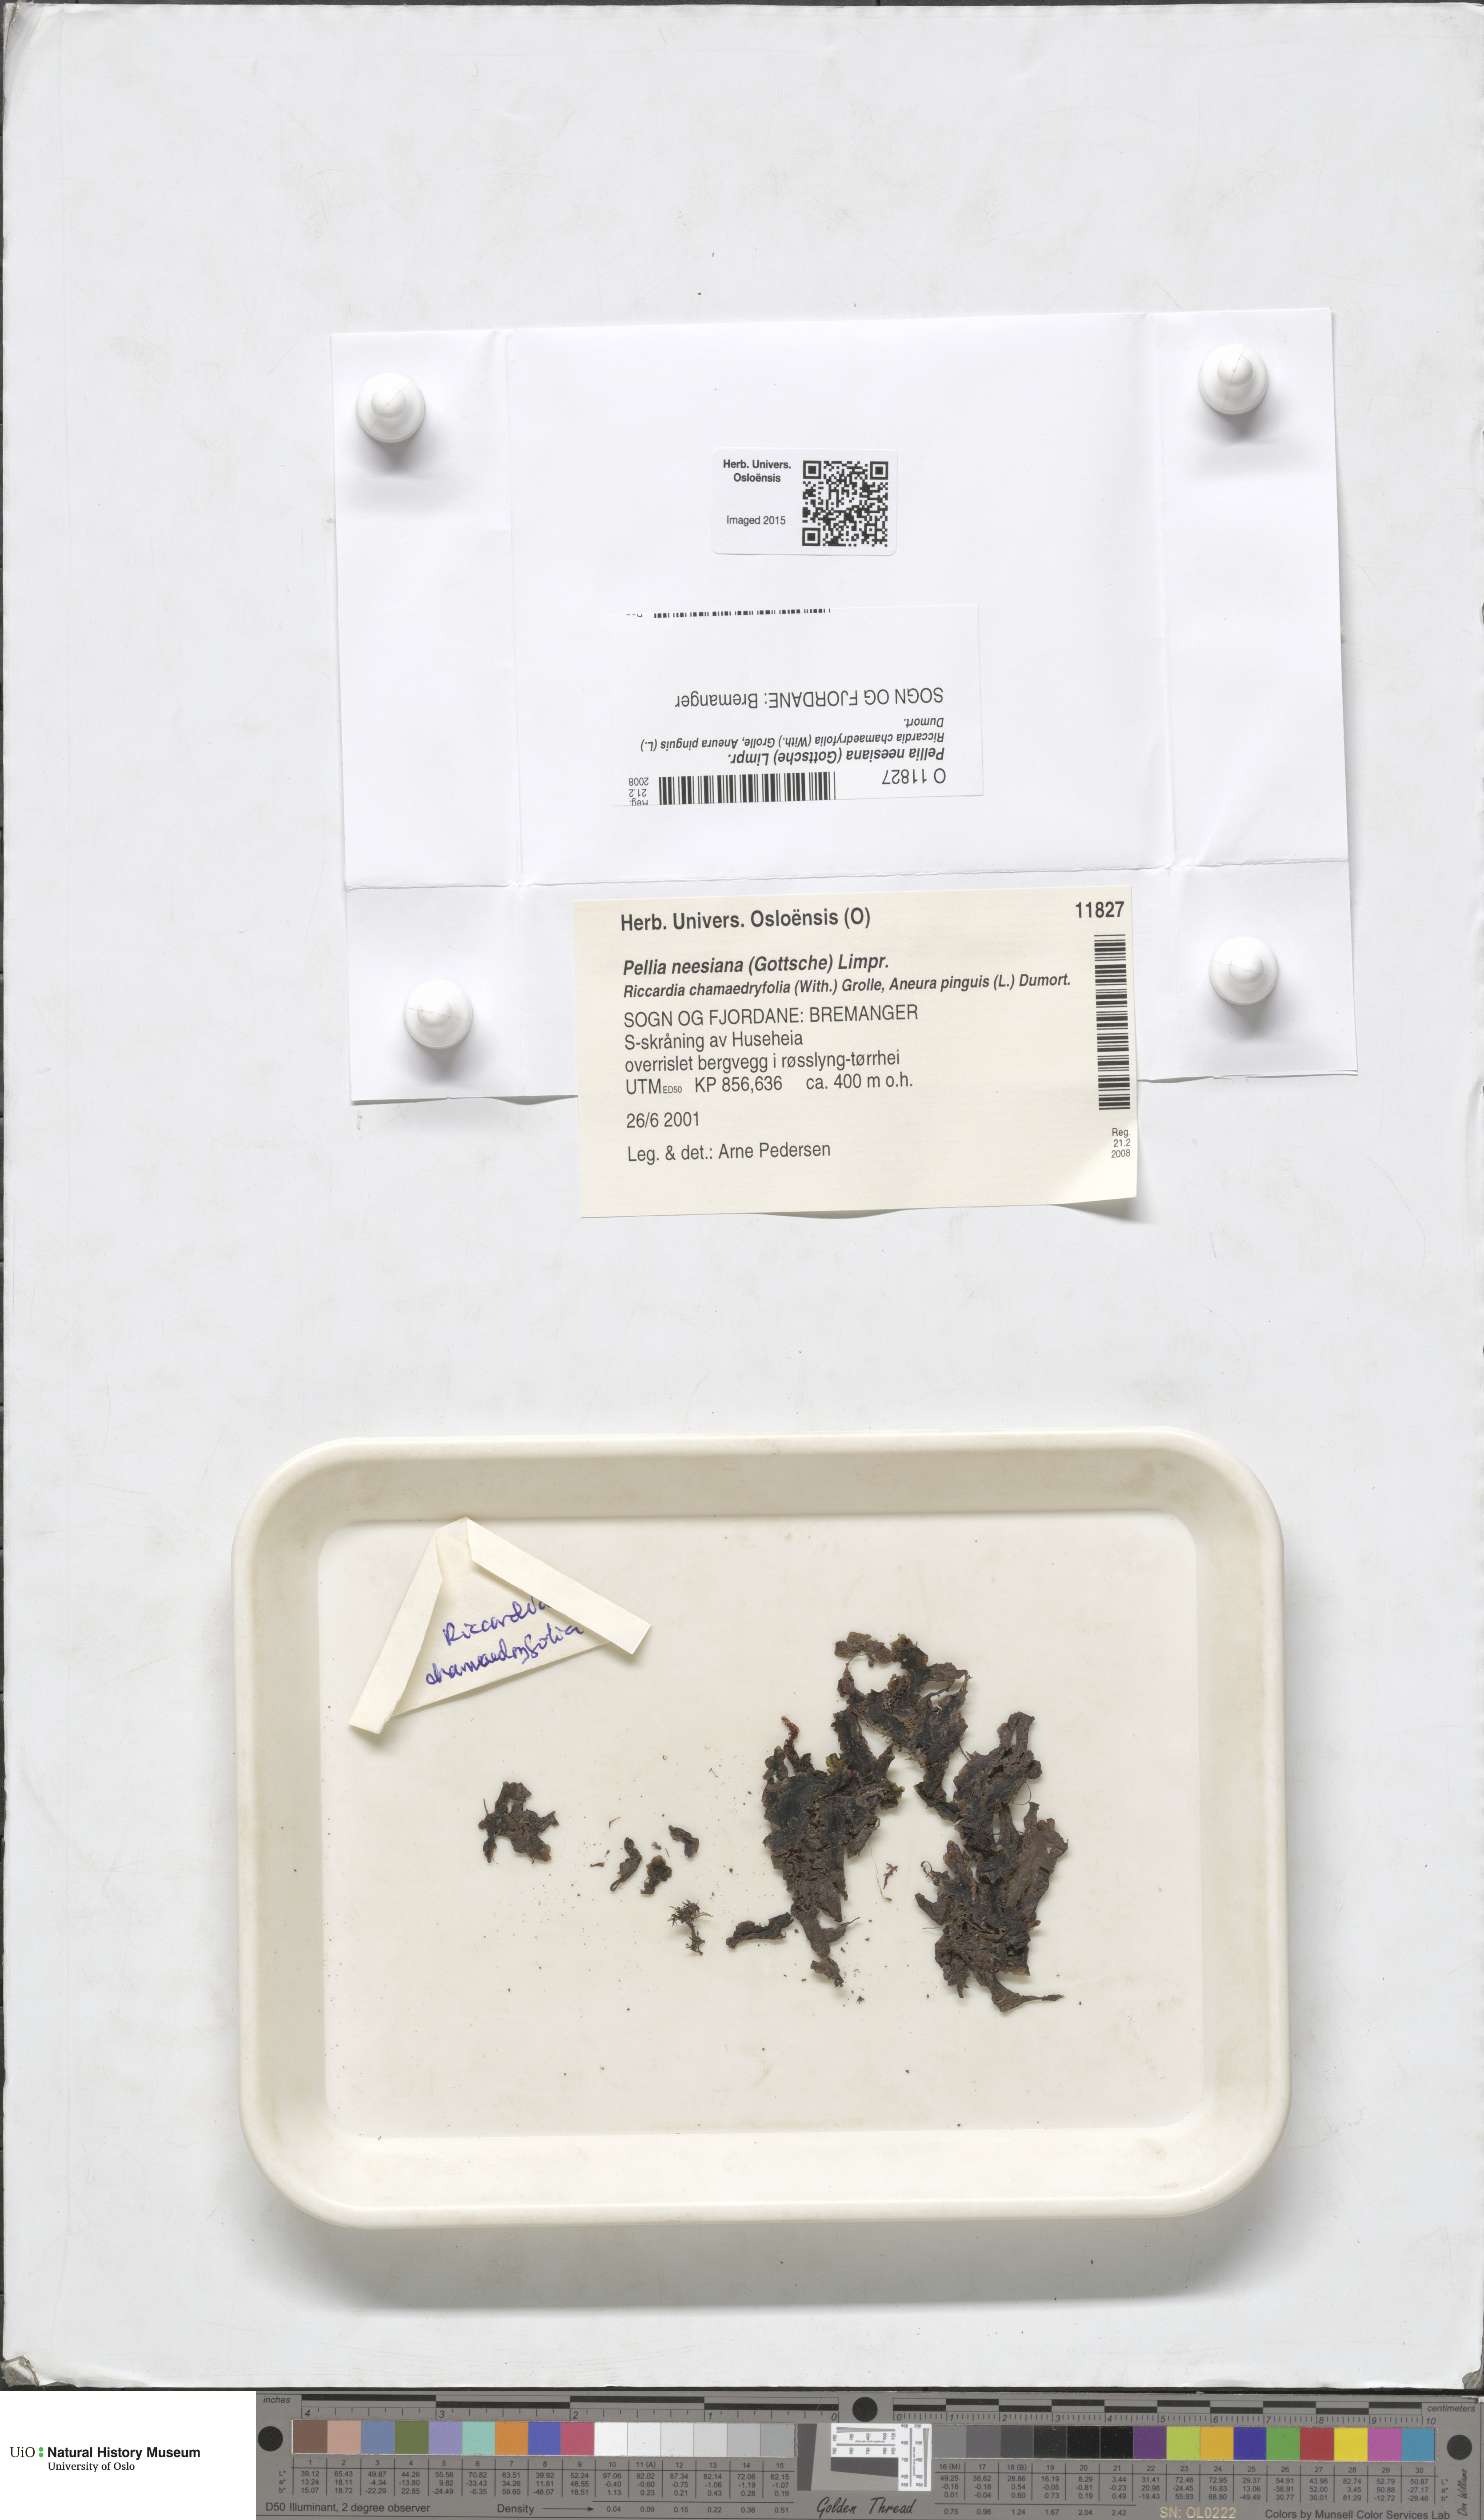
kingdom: Plantae
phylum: Marchantiophyta
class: Jungermanniopsida
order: Pelliales
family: Pelliaceae
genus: Pellia
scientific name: Pellia neesiana
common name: Nees  pellia
